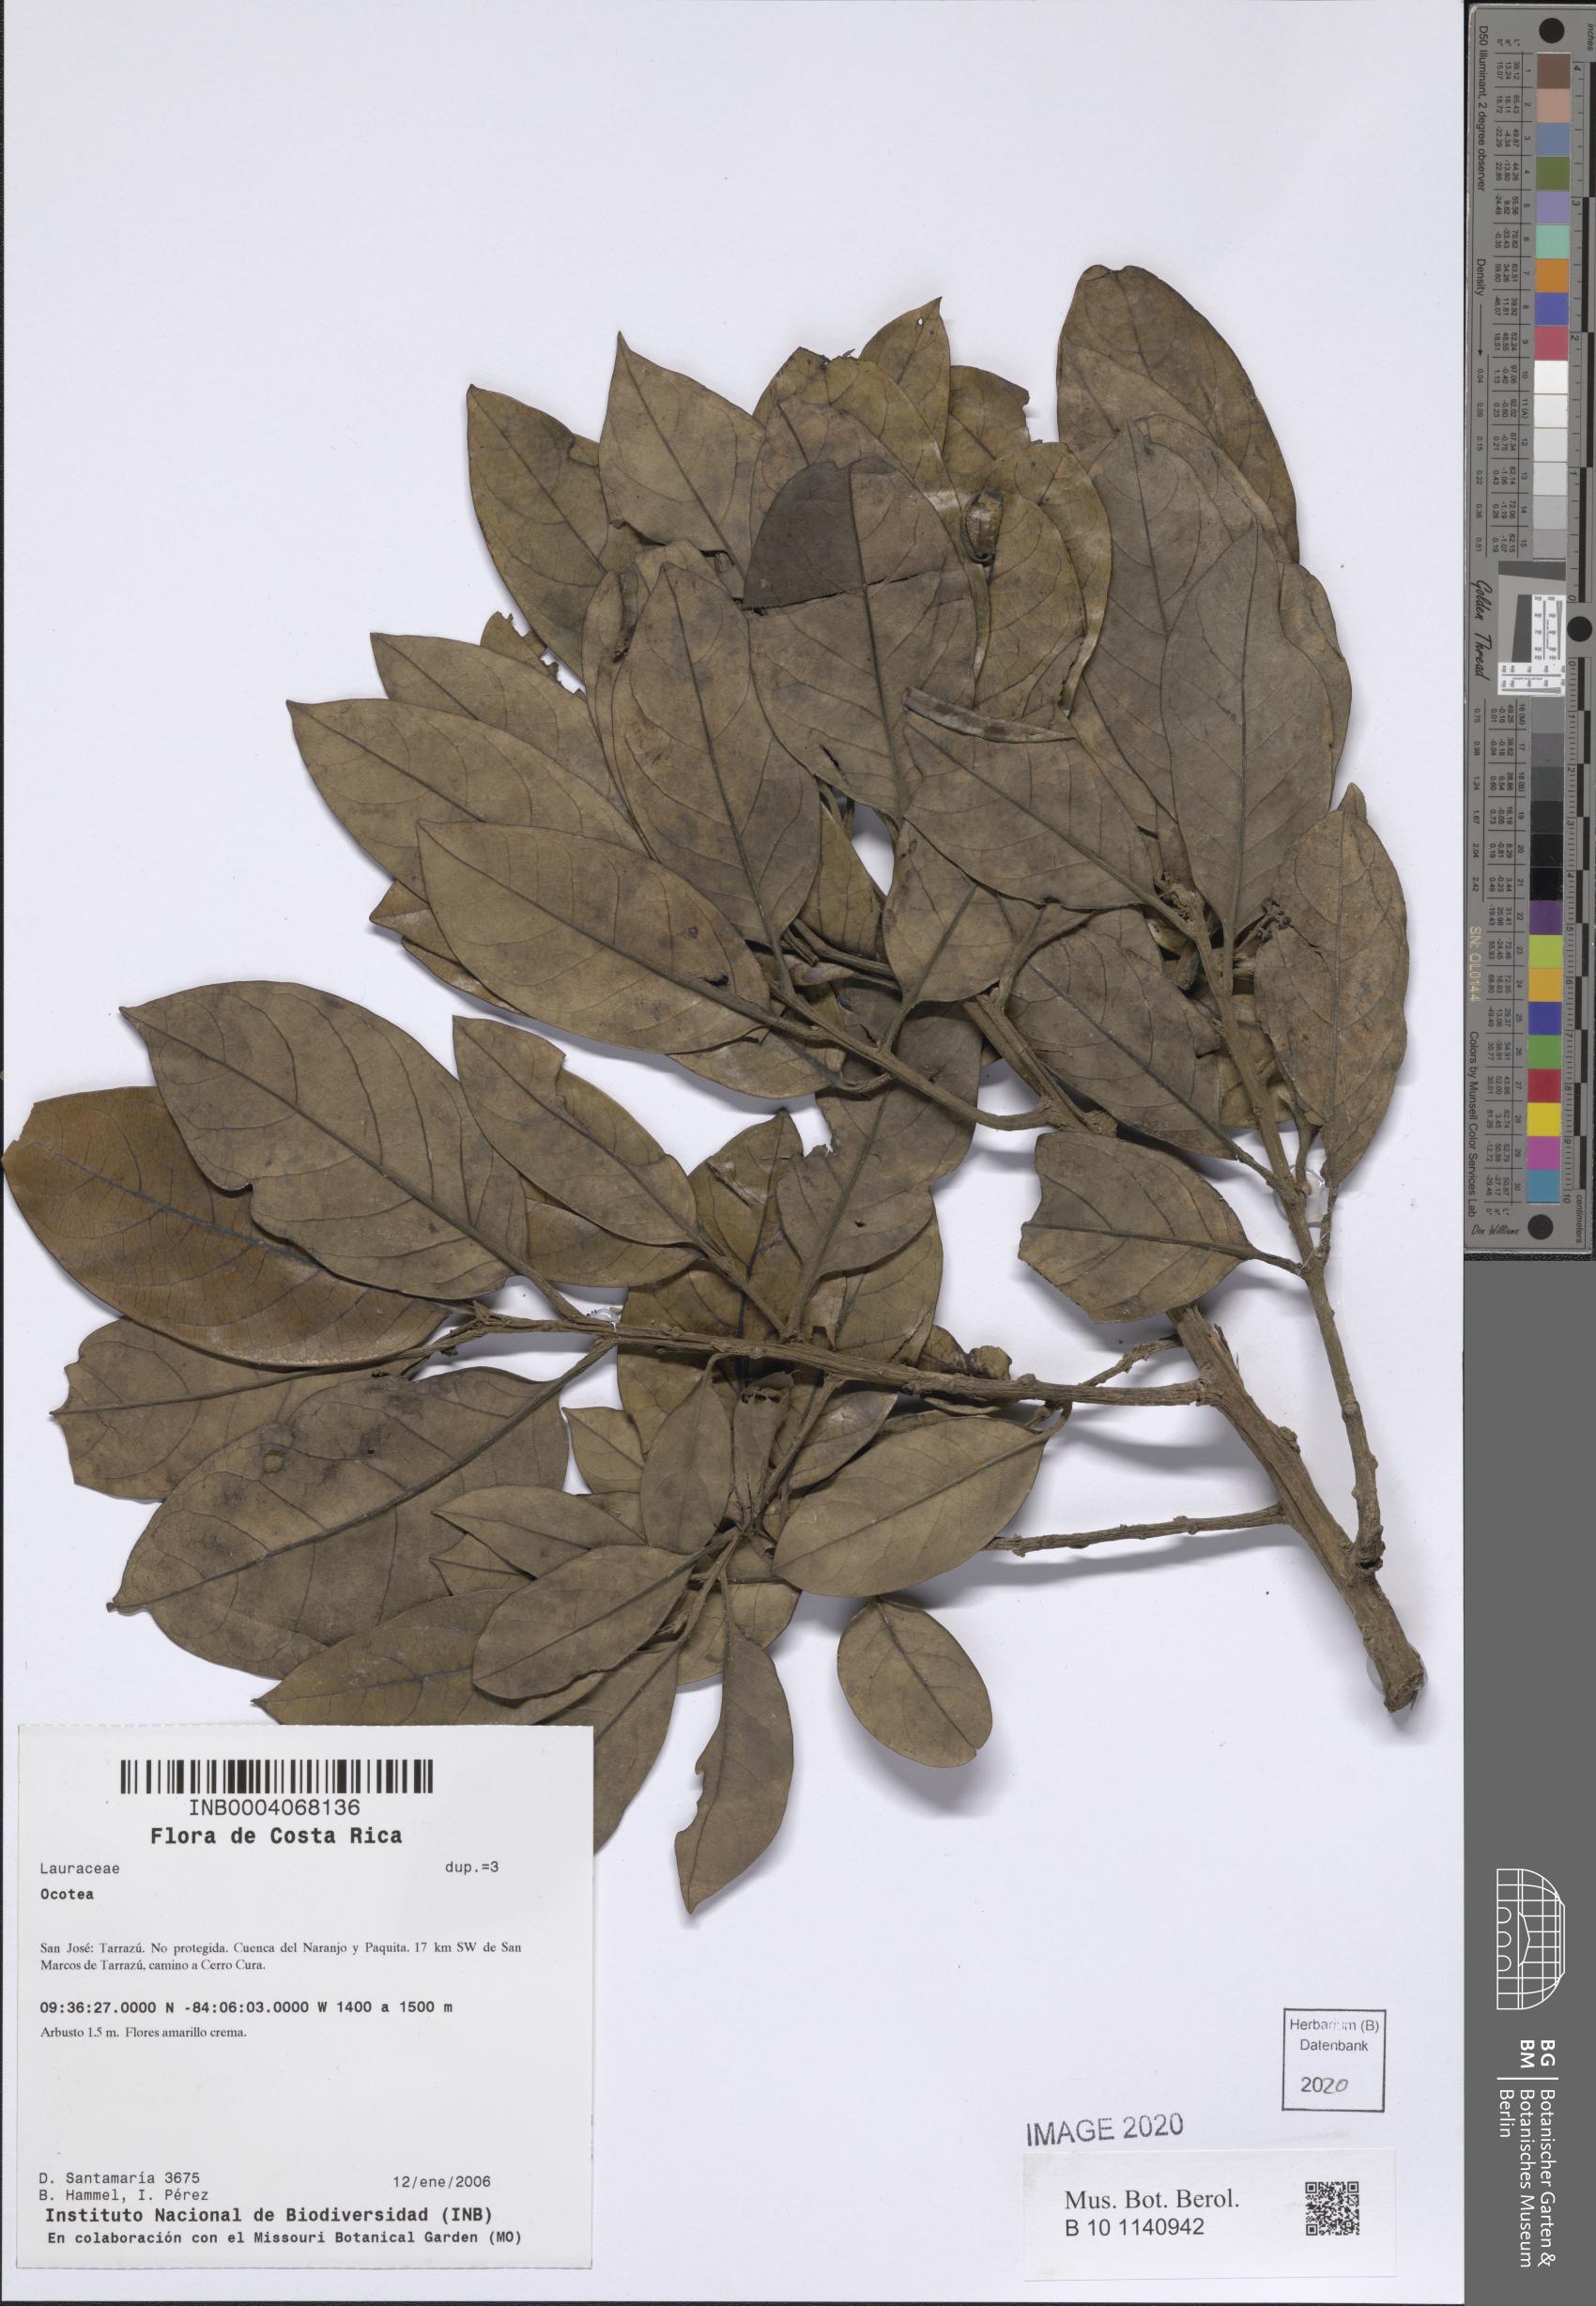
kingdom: Plantae
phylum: Tracheophyta
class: Magnoliopsida
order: Laurales
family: Lauraceae
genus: Ocotea
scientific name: Ocotea
